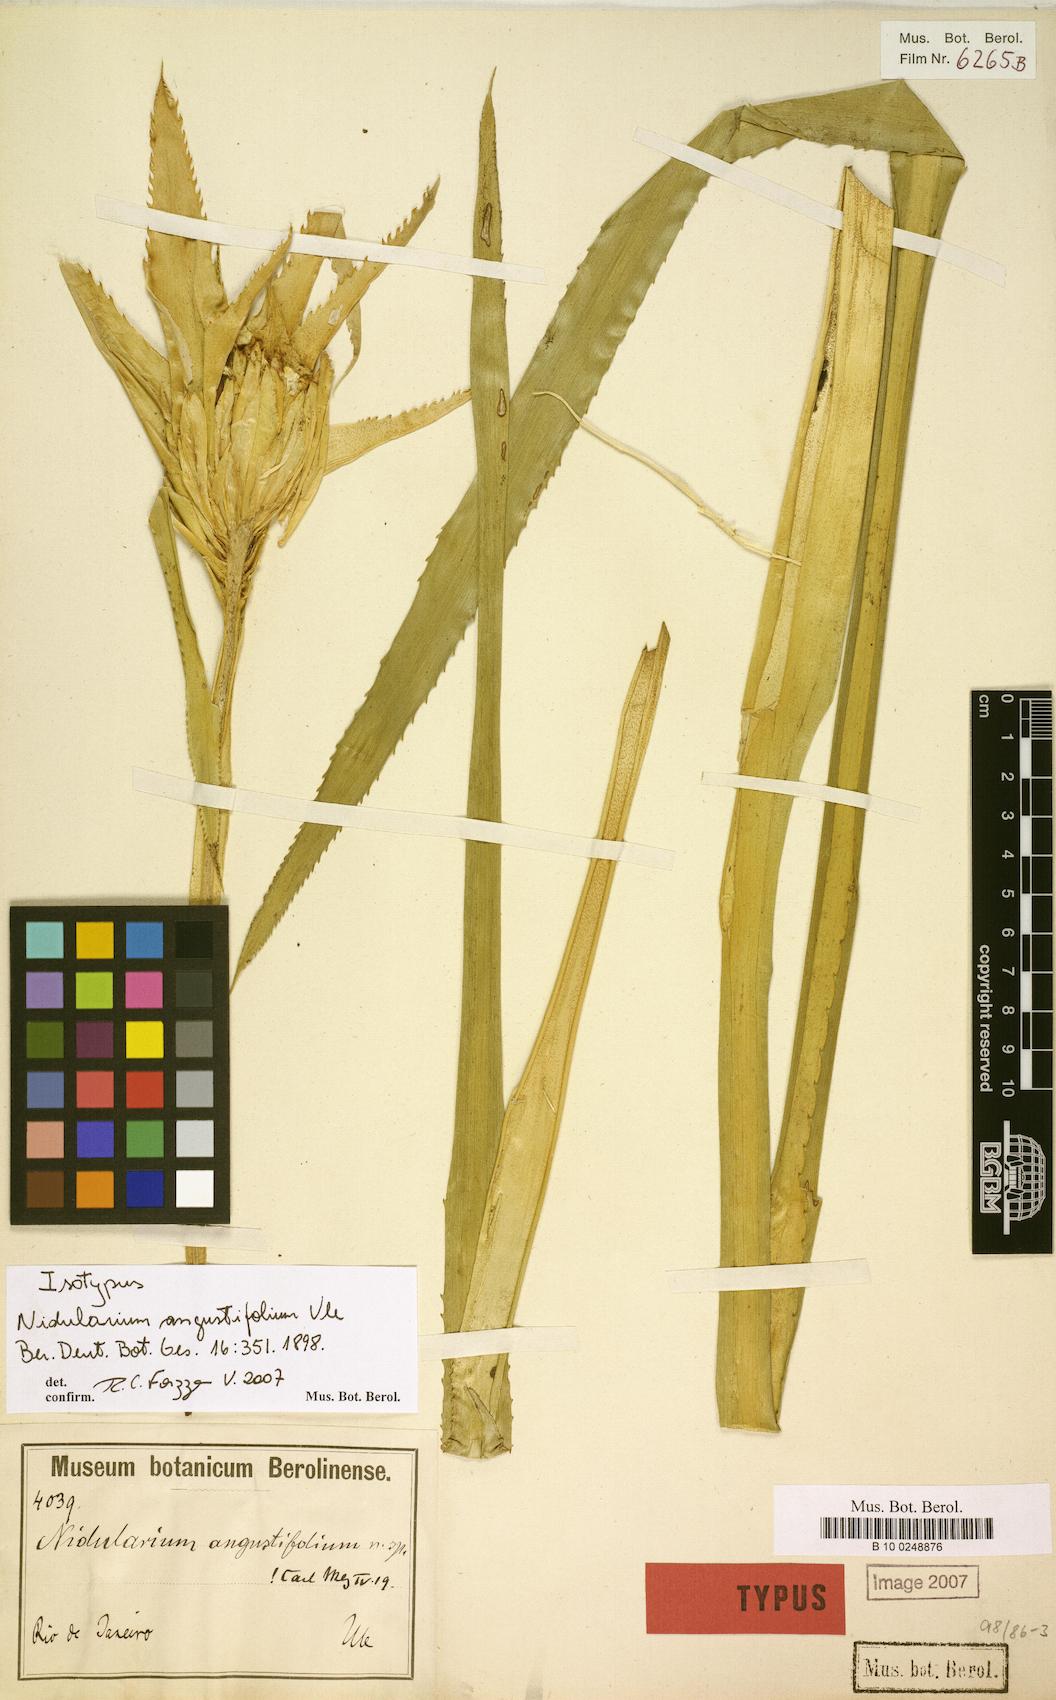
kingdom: Plantae
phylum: Tracheophyta
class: Liliopsida
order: Poales
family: Bromeliaceae
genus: Nidularium
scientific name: Nidularium angustifolium
